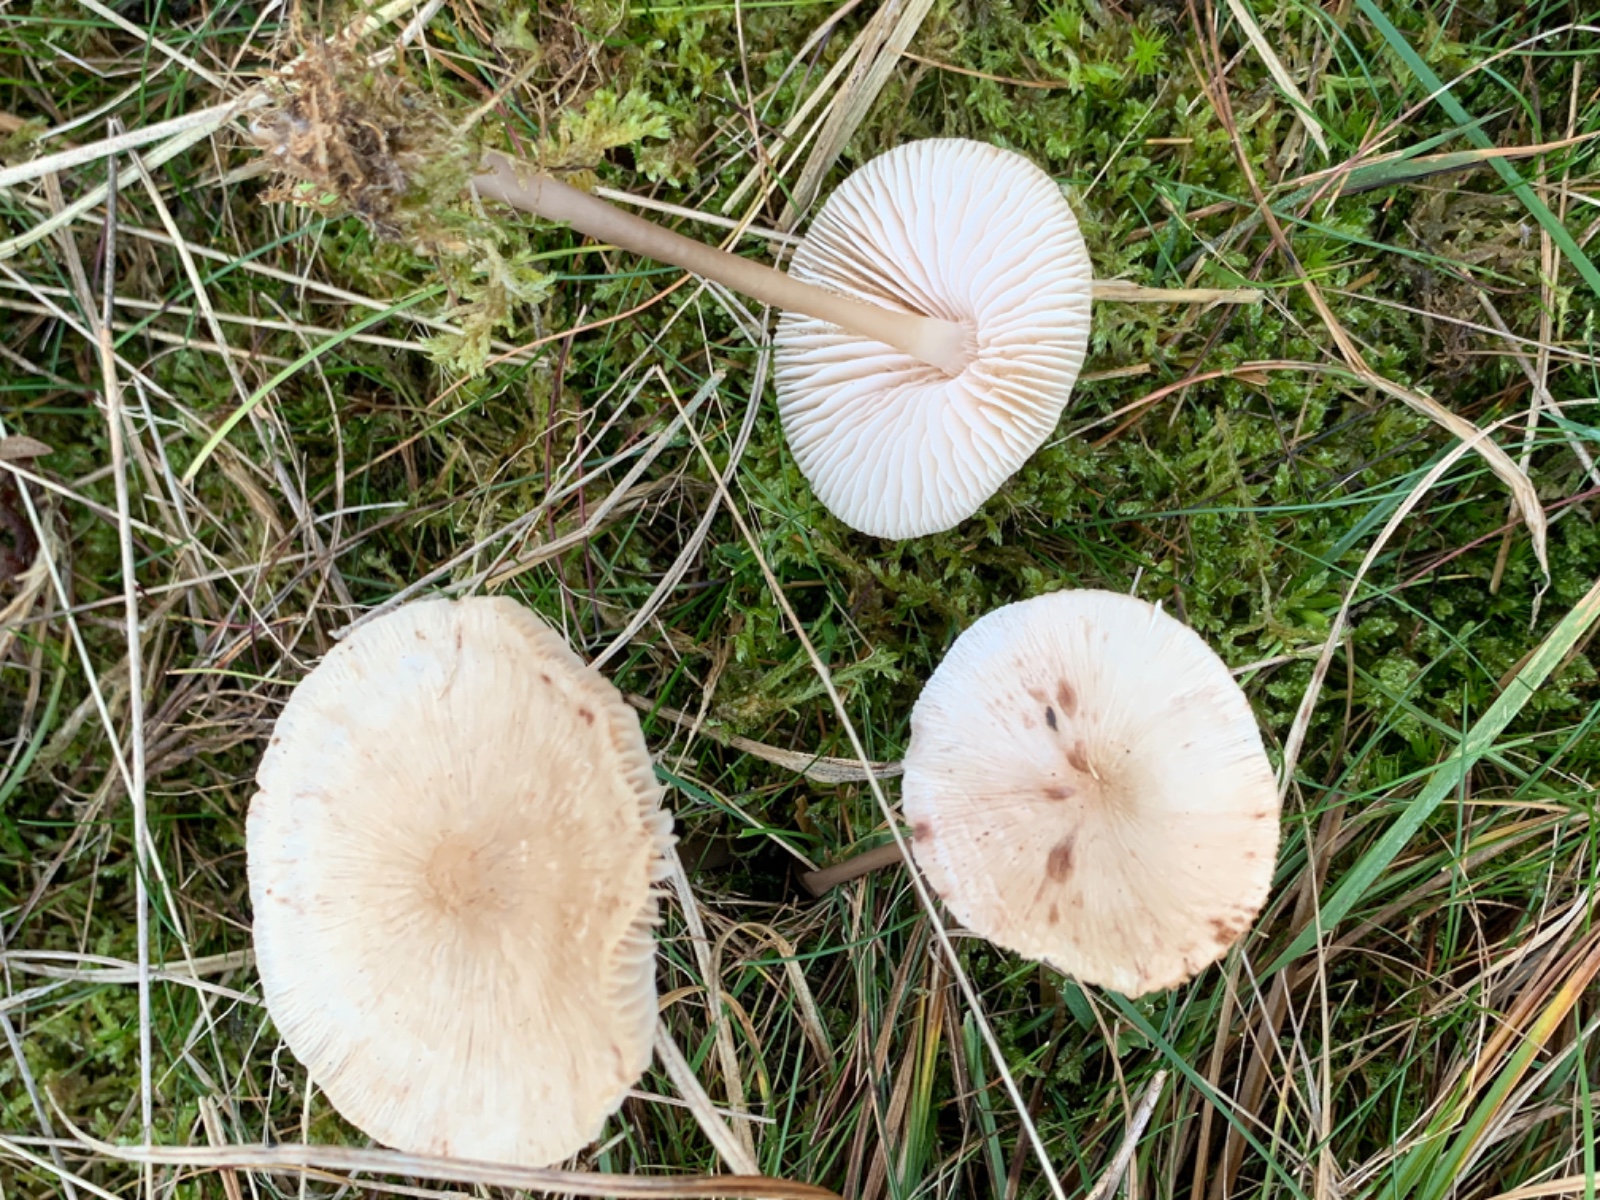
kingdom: Fungi
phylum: Basidiomycota
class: Agaricomycetes
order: Agaricales
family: Mycenaceae
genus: Mycena
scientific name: Mycena galericulata
